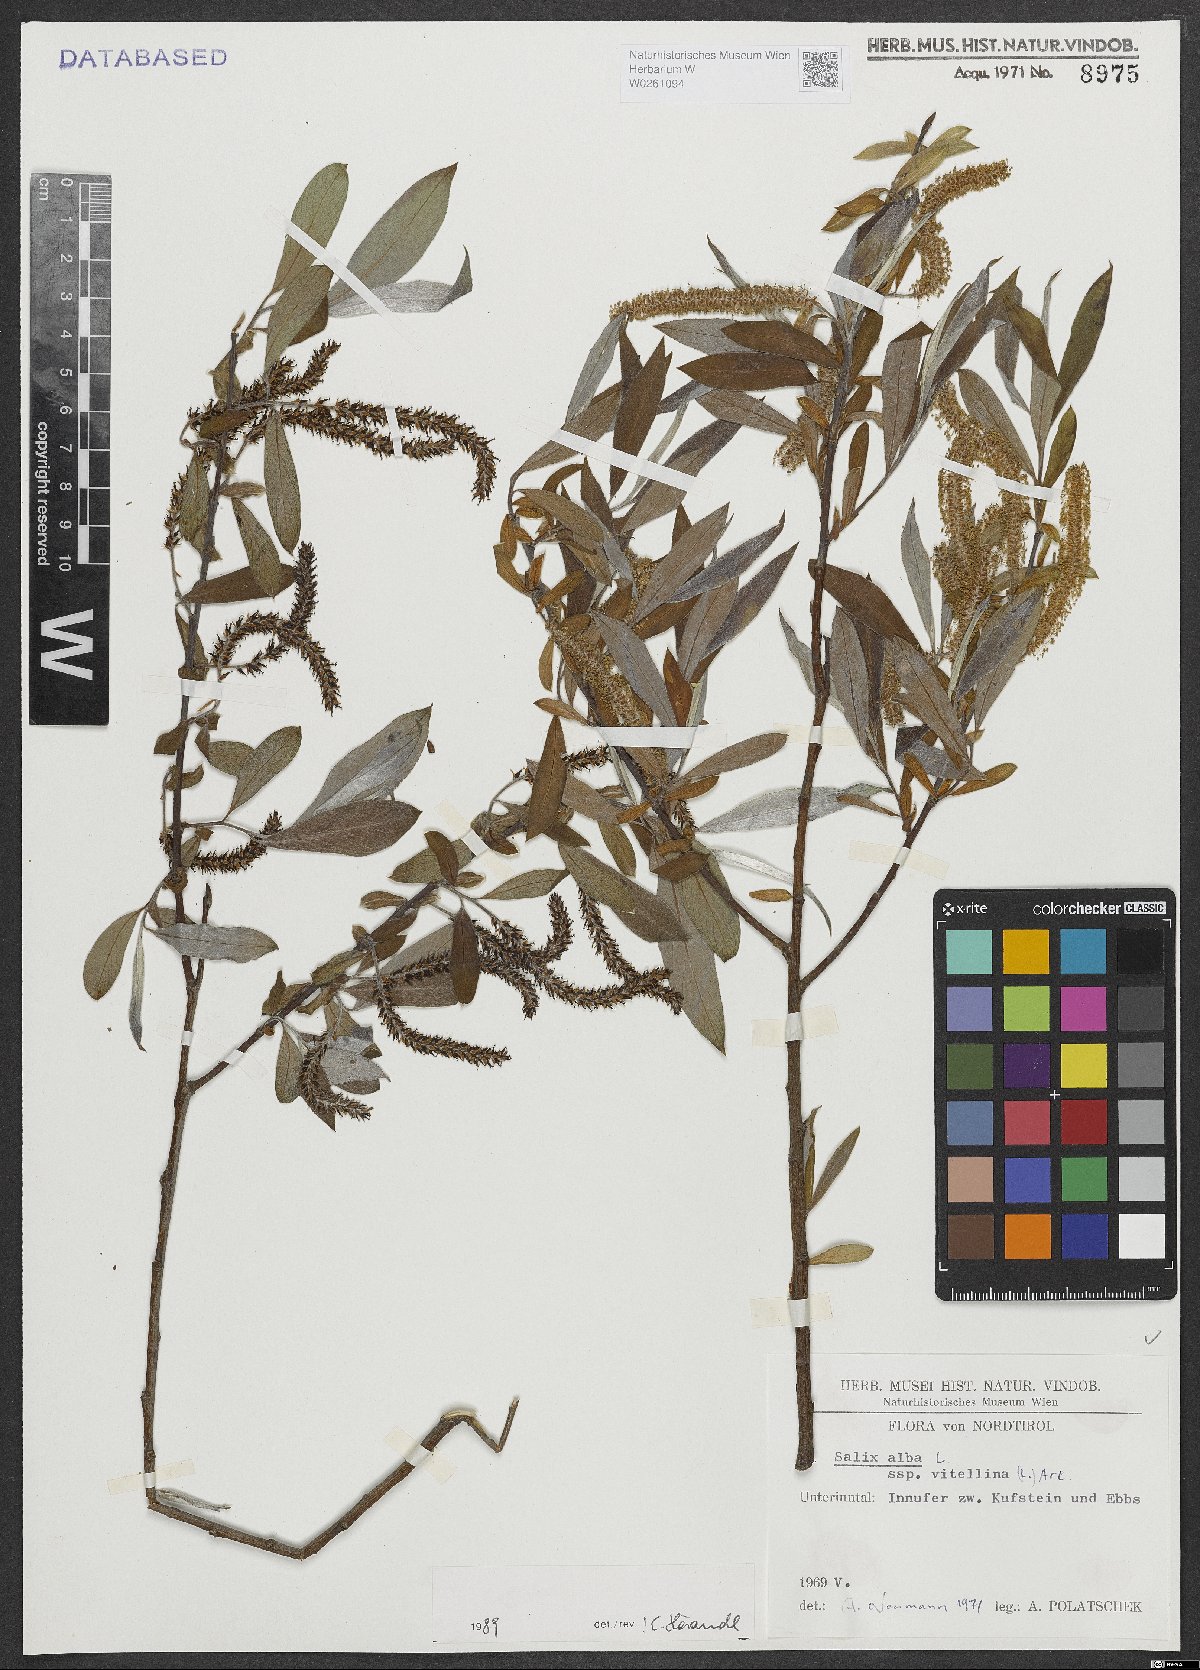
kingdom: Plantae
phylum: Tracheophyta
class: Magnoliopsida
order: Malpighiales
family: Salicaceae
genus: Salix
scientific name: Salix alba
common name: White willow
